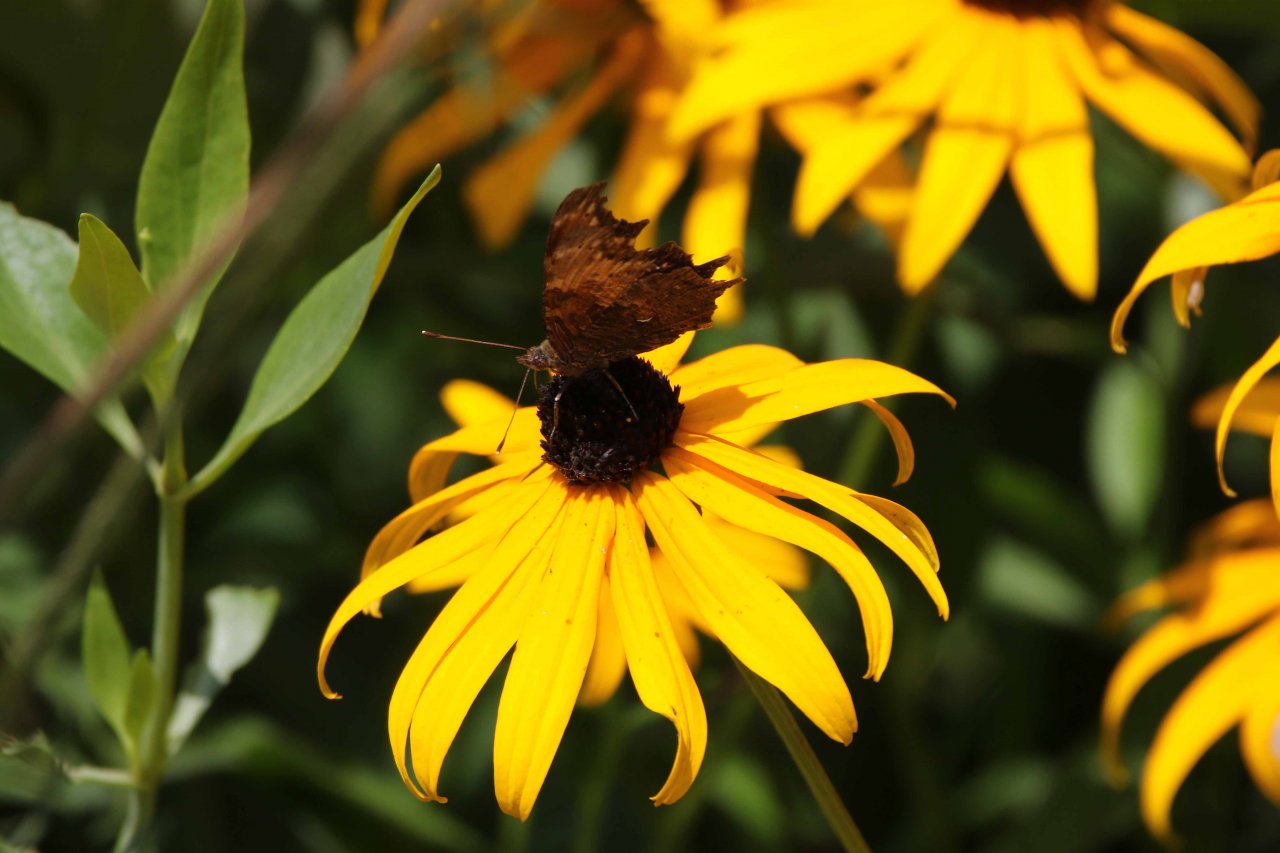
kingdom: Animalia
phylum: Arthropoda
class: Insecta
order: Lepidoptera
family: Nymphalidae
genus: Polygonia
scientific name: Polygonia progne
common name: Gray Comma
